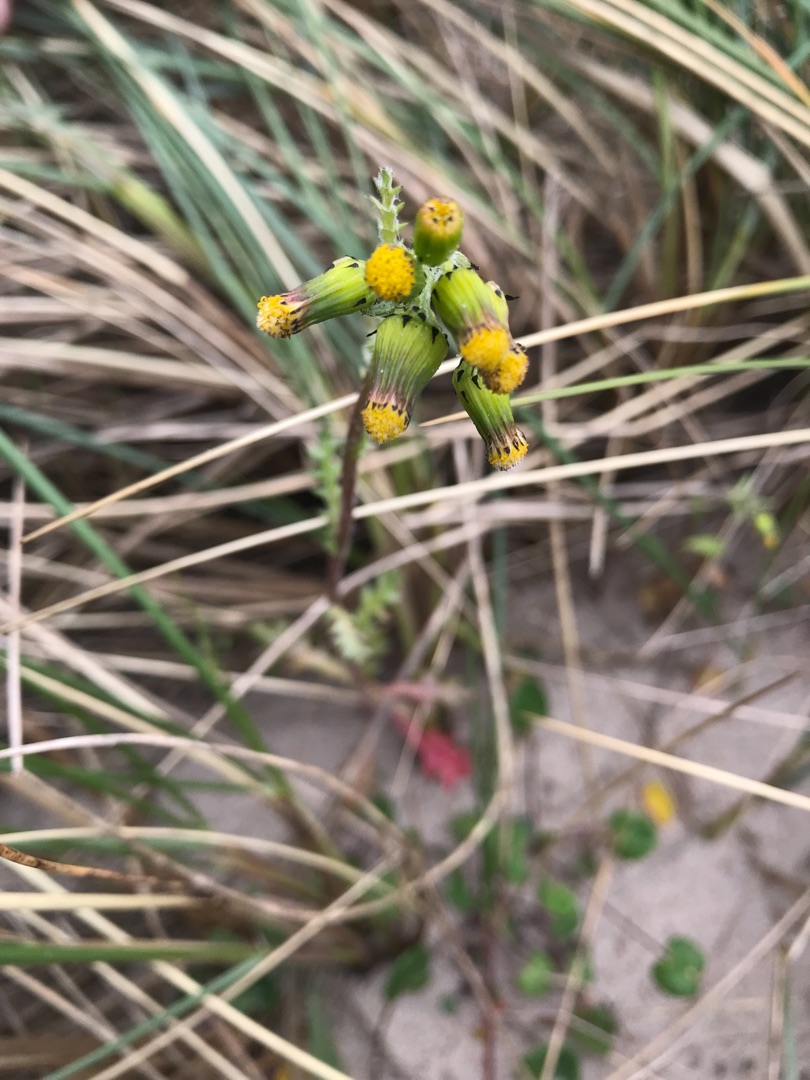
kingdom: Plantae
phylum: Tracheophyta
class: Magnoliopsida
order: Asterales
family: Asteraceae
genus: Senecio
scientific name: Senecio vulgaris
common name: Almindelig brandbæger
